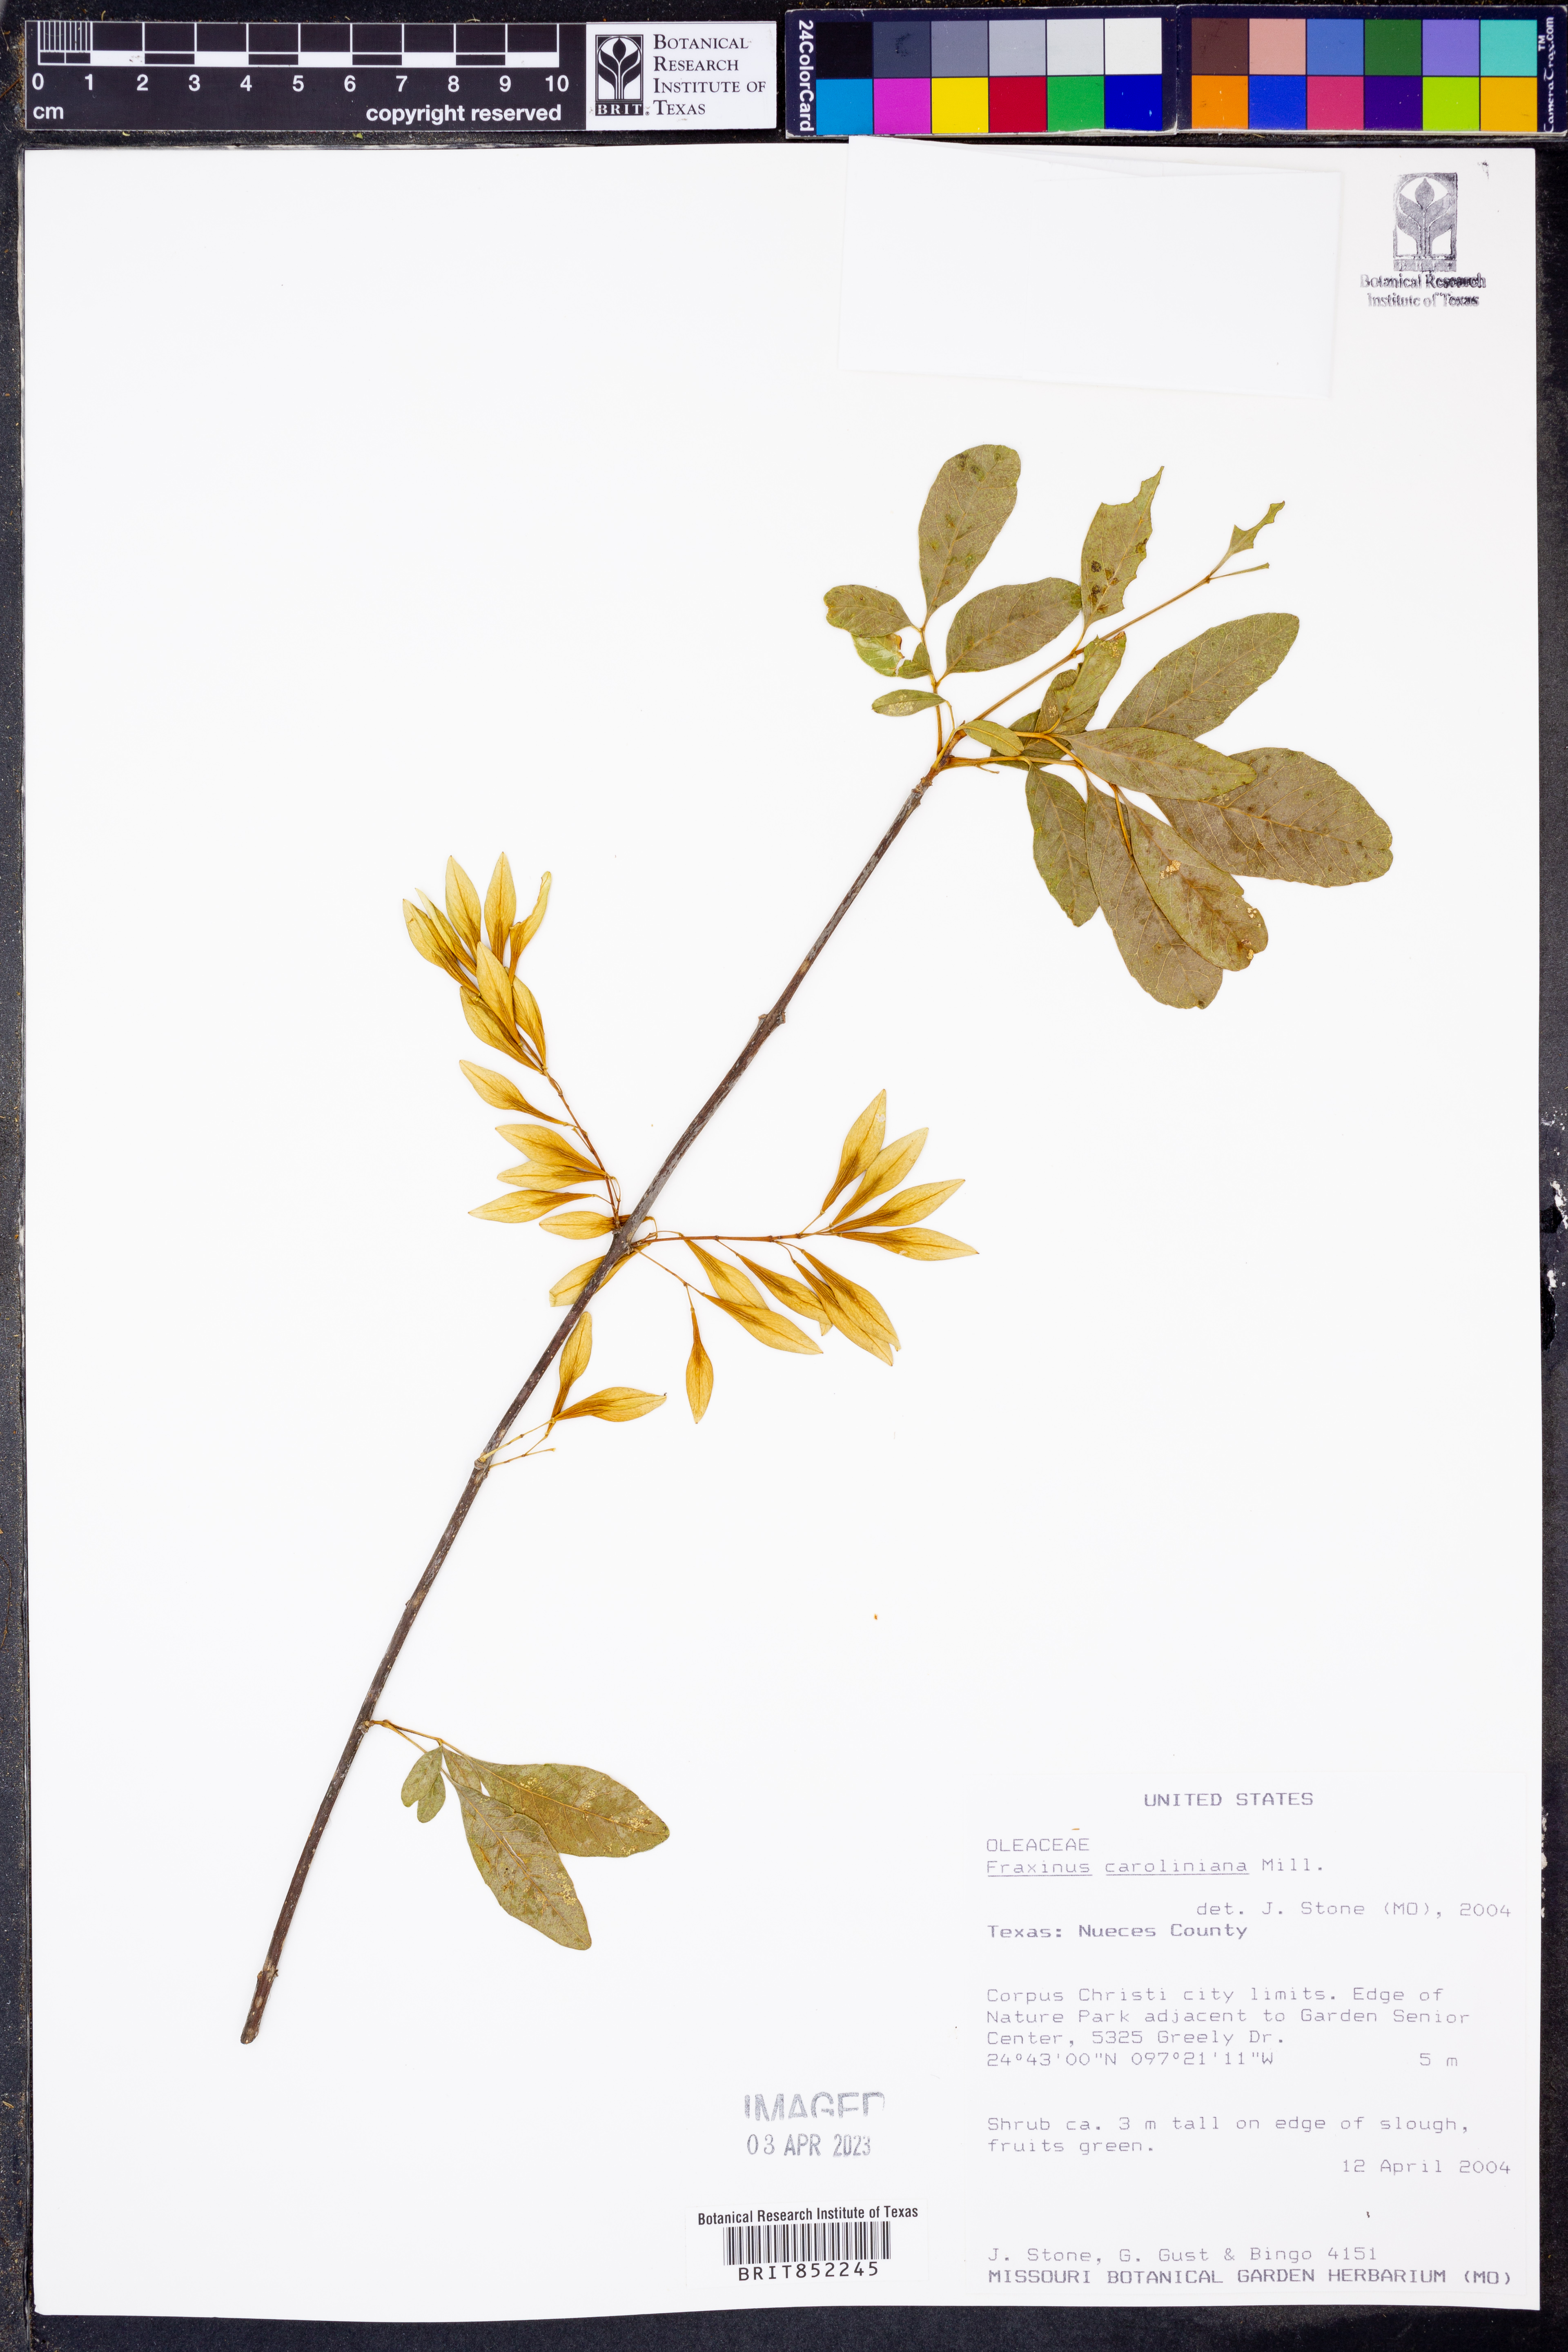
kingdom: Plantae
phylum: Tracheophyta
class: Magnoliopsida
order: Lamiales
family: Oleaceae
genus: Fraxinus
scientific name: Fraxinus caroliniana
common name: Carolina ash
